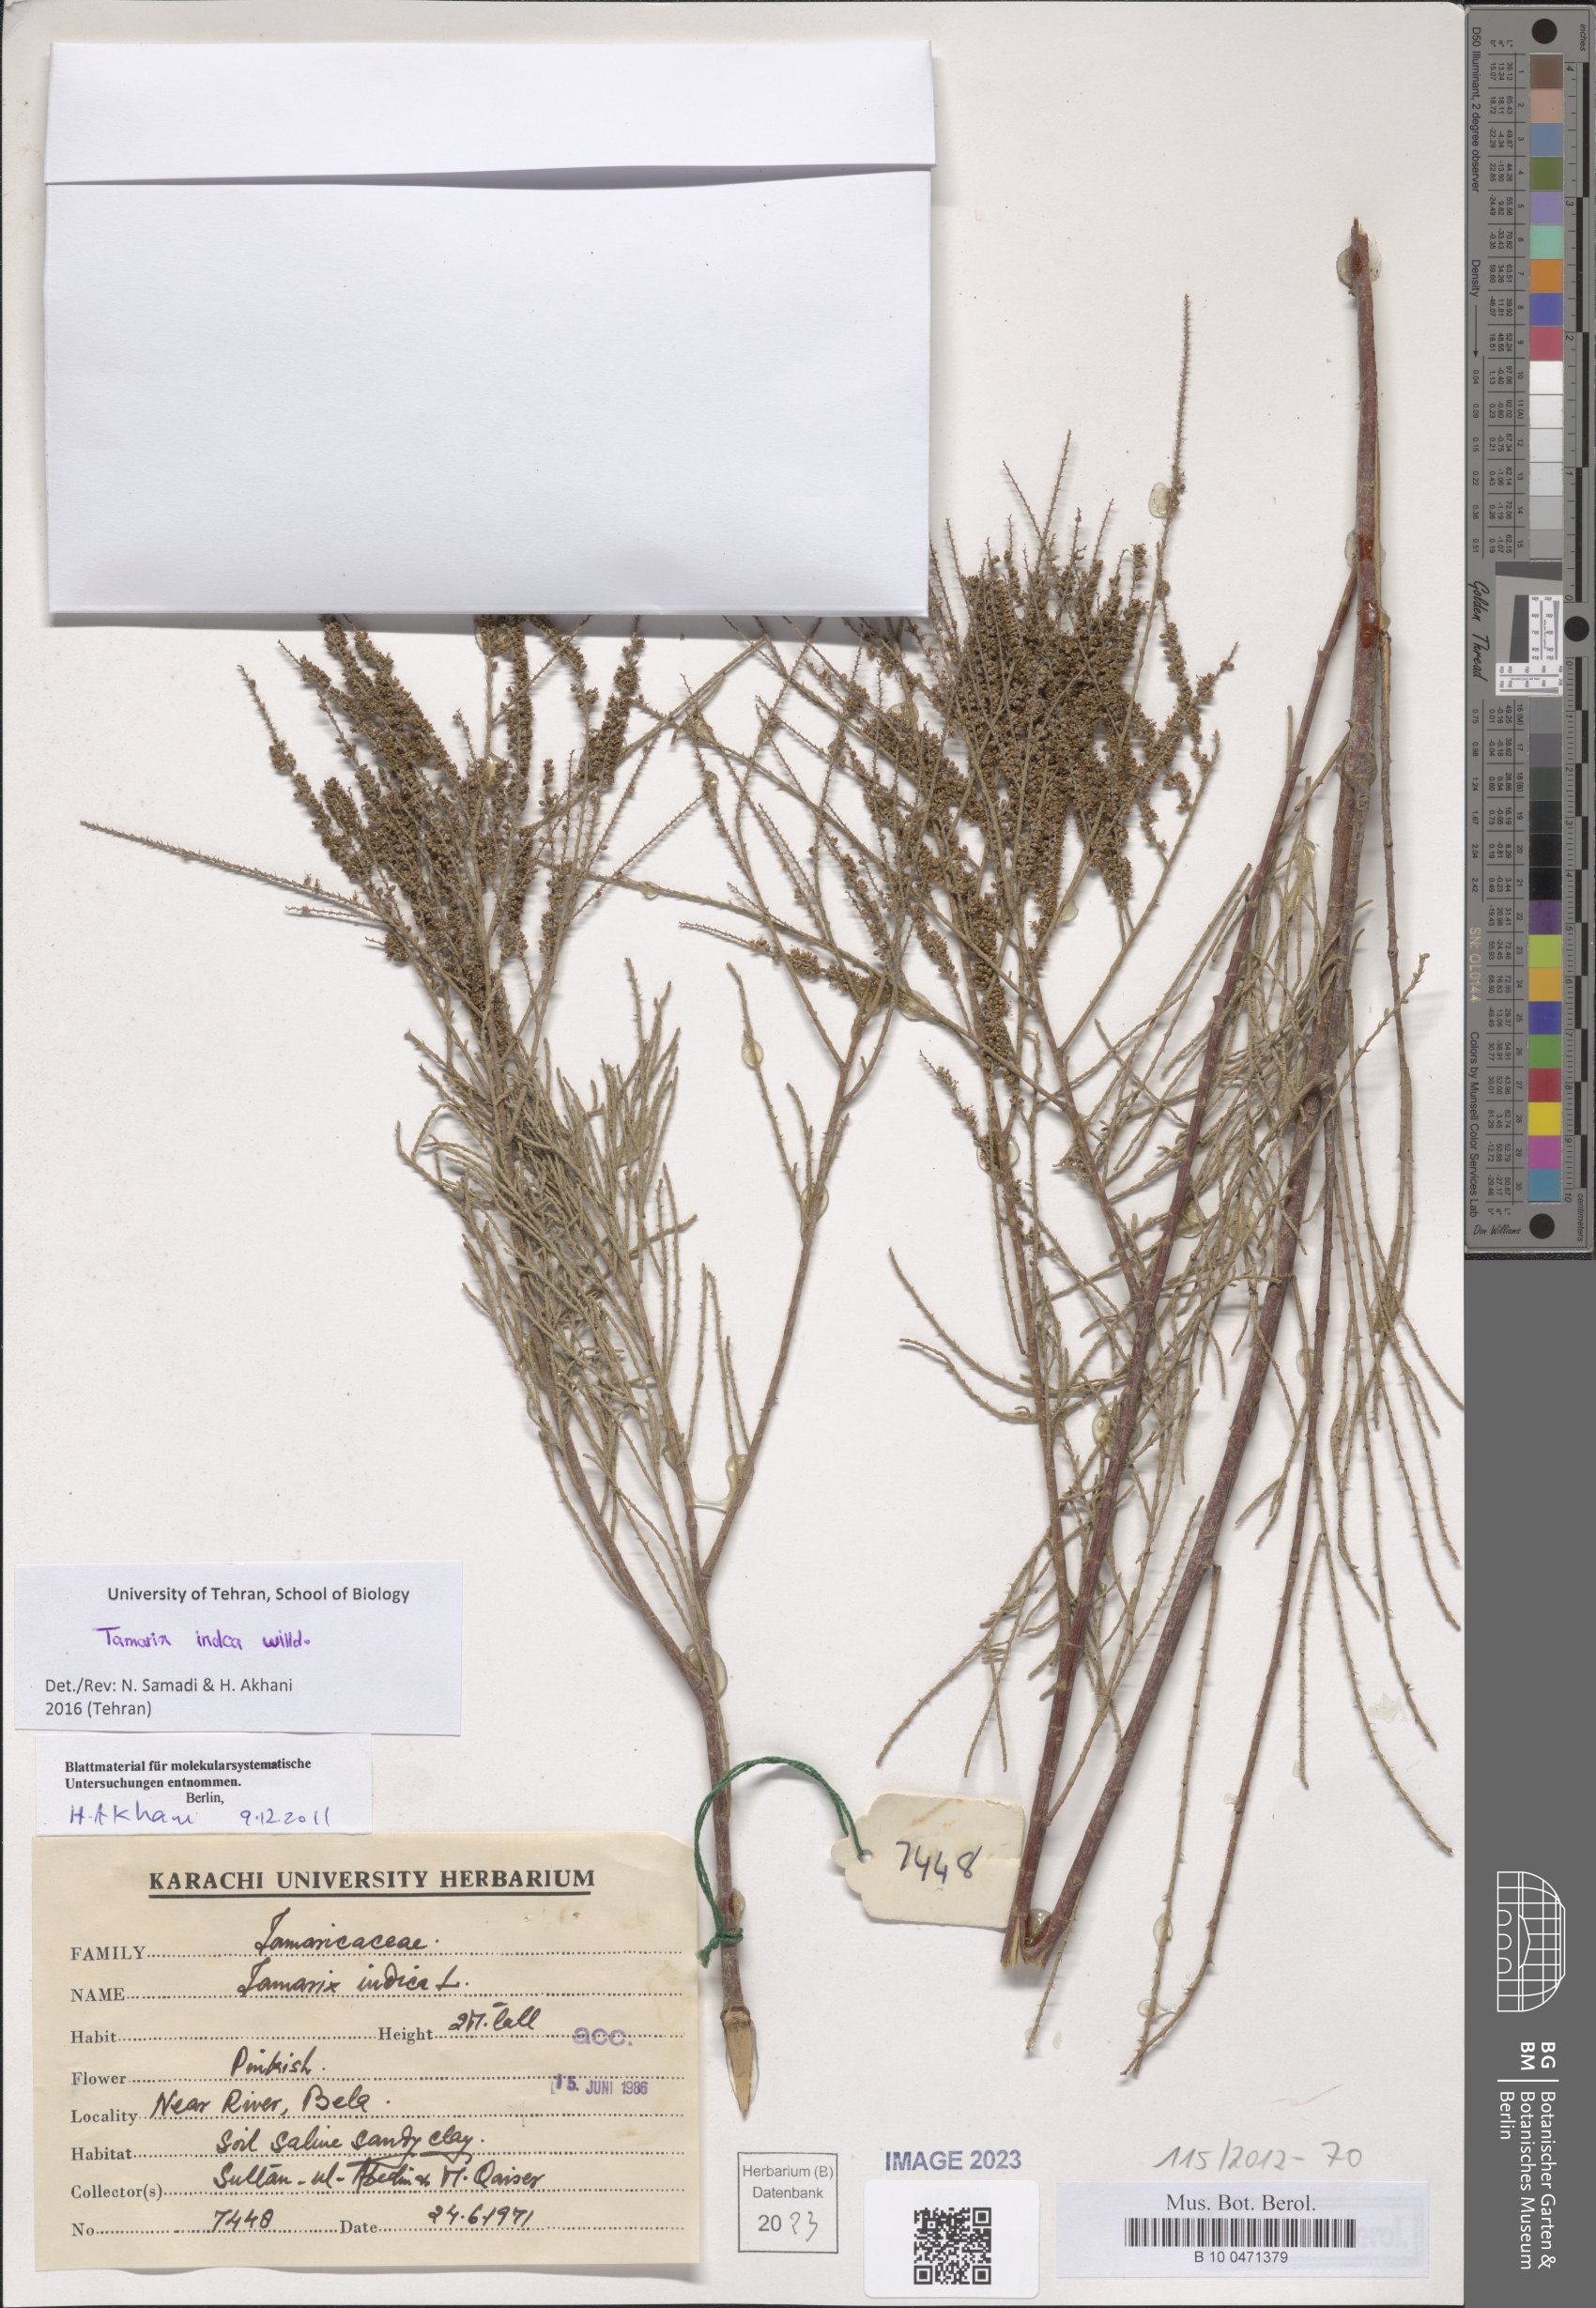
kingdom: Plantae
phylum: Tracheophyta
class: Magnoliopsida
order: Caryophyllales
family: Tamaricaceae
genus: Tamarix
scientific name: Tamarix indica
